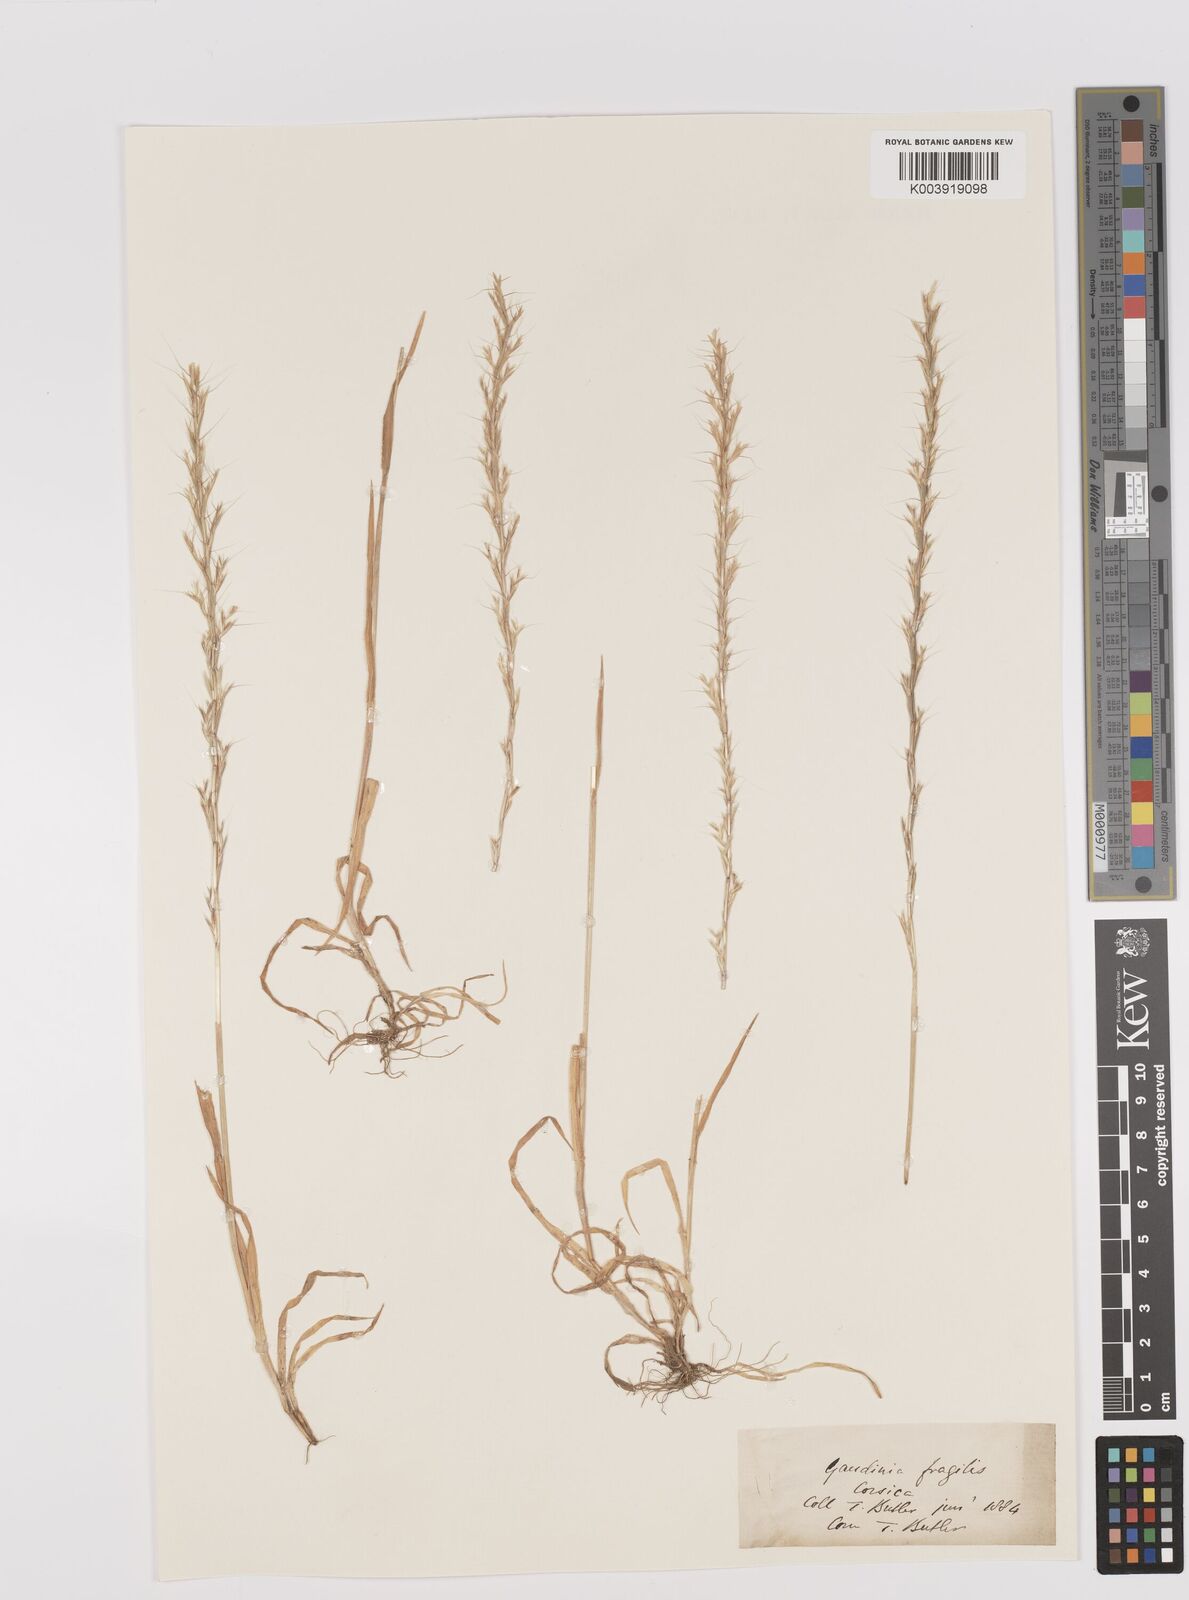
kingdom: Plantae
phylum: Tracheophyta
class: Liliopsida
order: Poales
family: Poaceae
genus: Gaudinia
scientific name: Gaudinia fragilis
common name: French oat-grass
